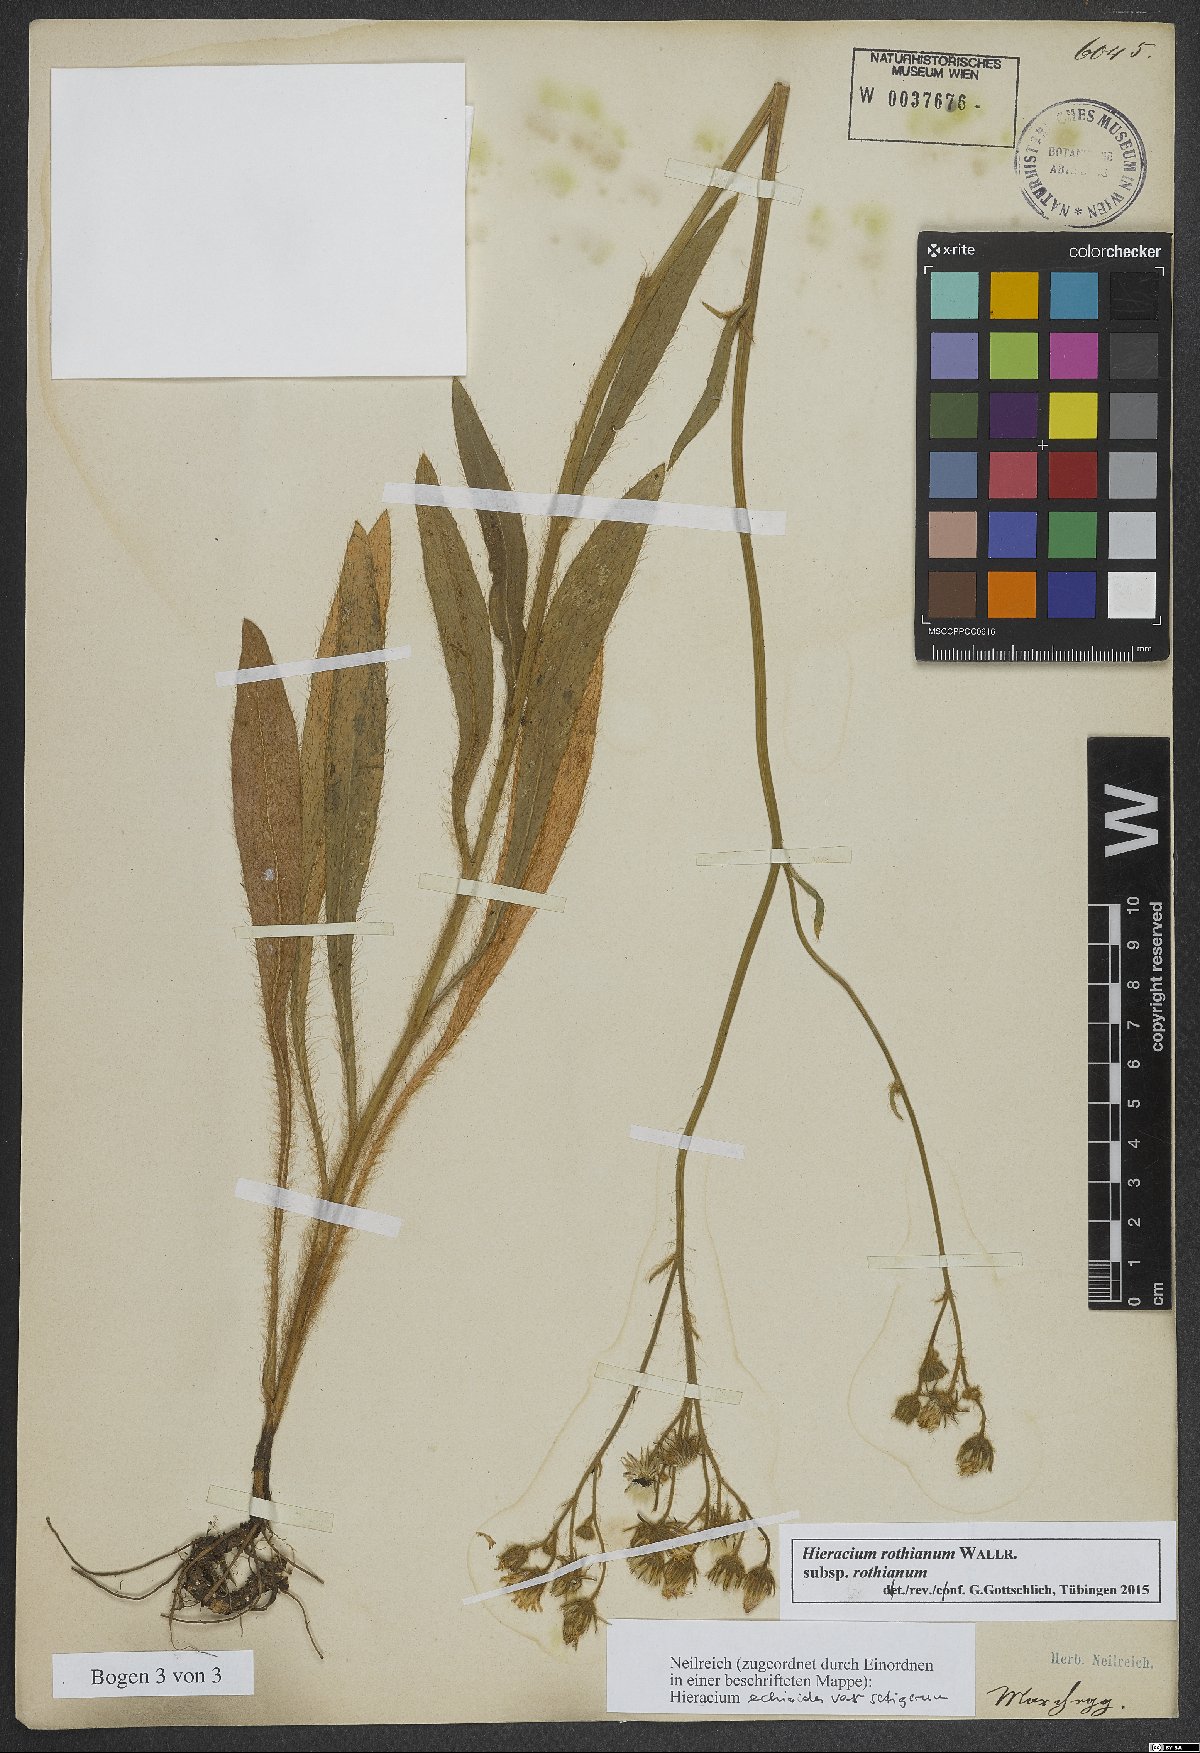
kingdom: Plantae
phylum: Tracheophyta
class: Magnoliopsida
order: Asterales
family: Asteraceae
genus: Pilosella
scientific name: Pilosella rothiana
